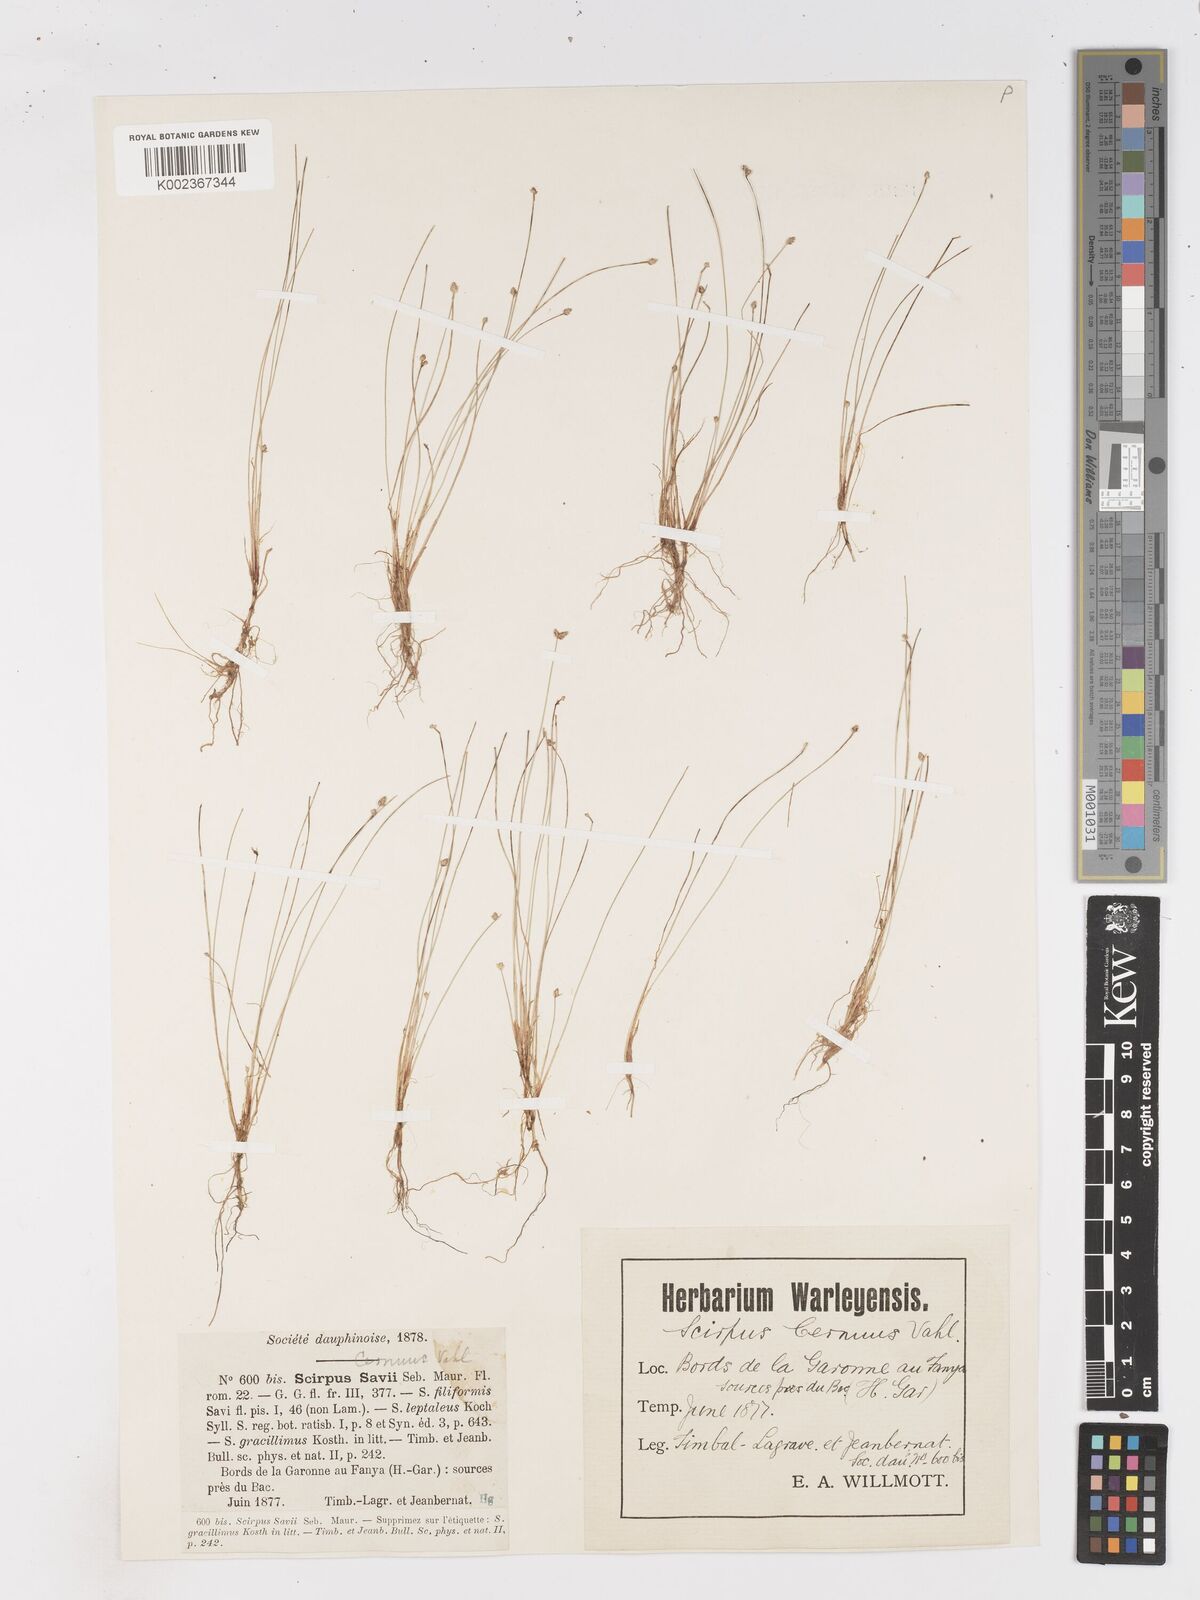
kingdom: Plantae
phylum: Tracheophyta
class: Liliopsida
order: Poales
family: Cyperaceae
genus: Isolepis
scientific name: Isolepis cernua
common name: Slender club-rush
